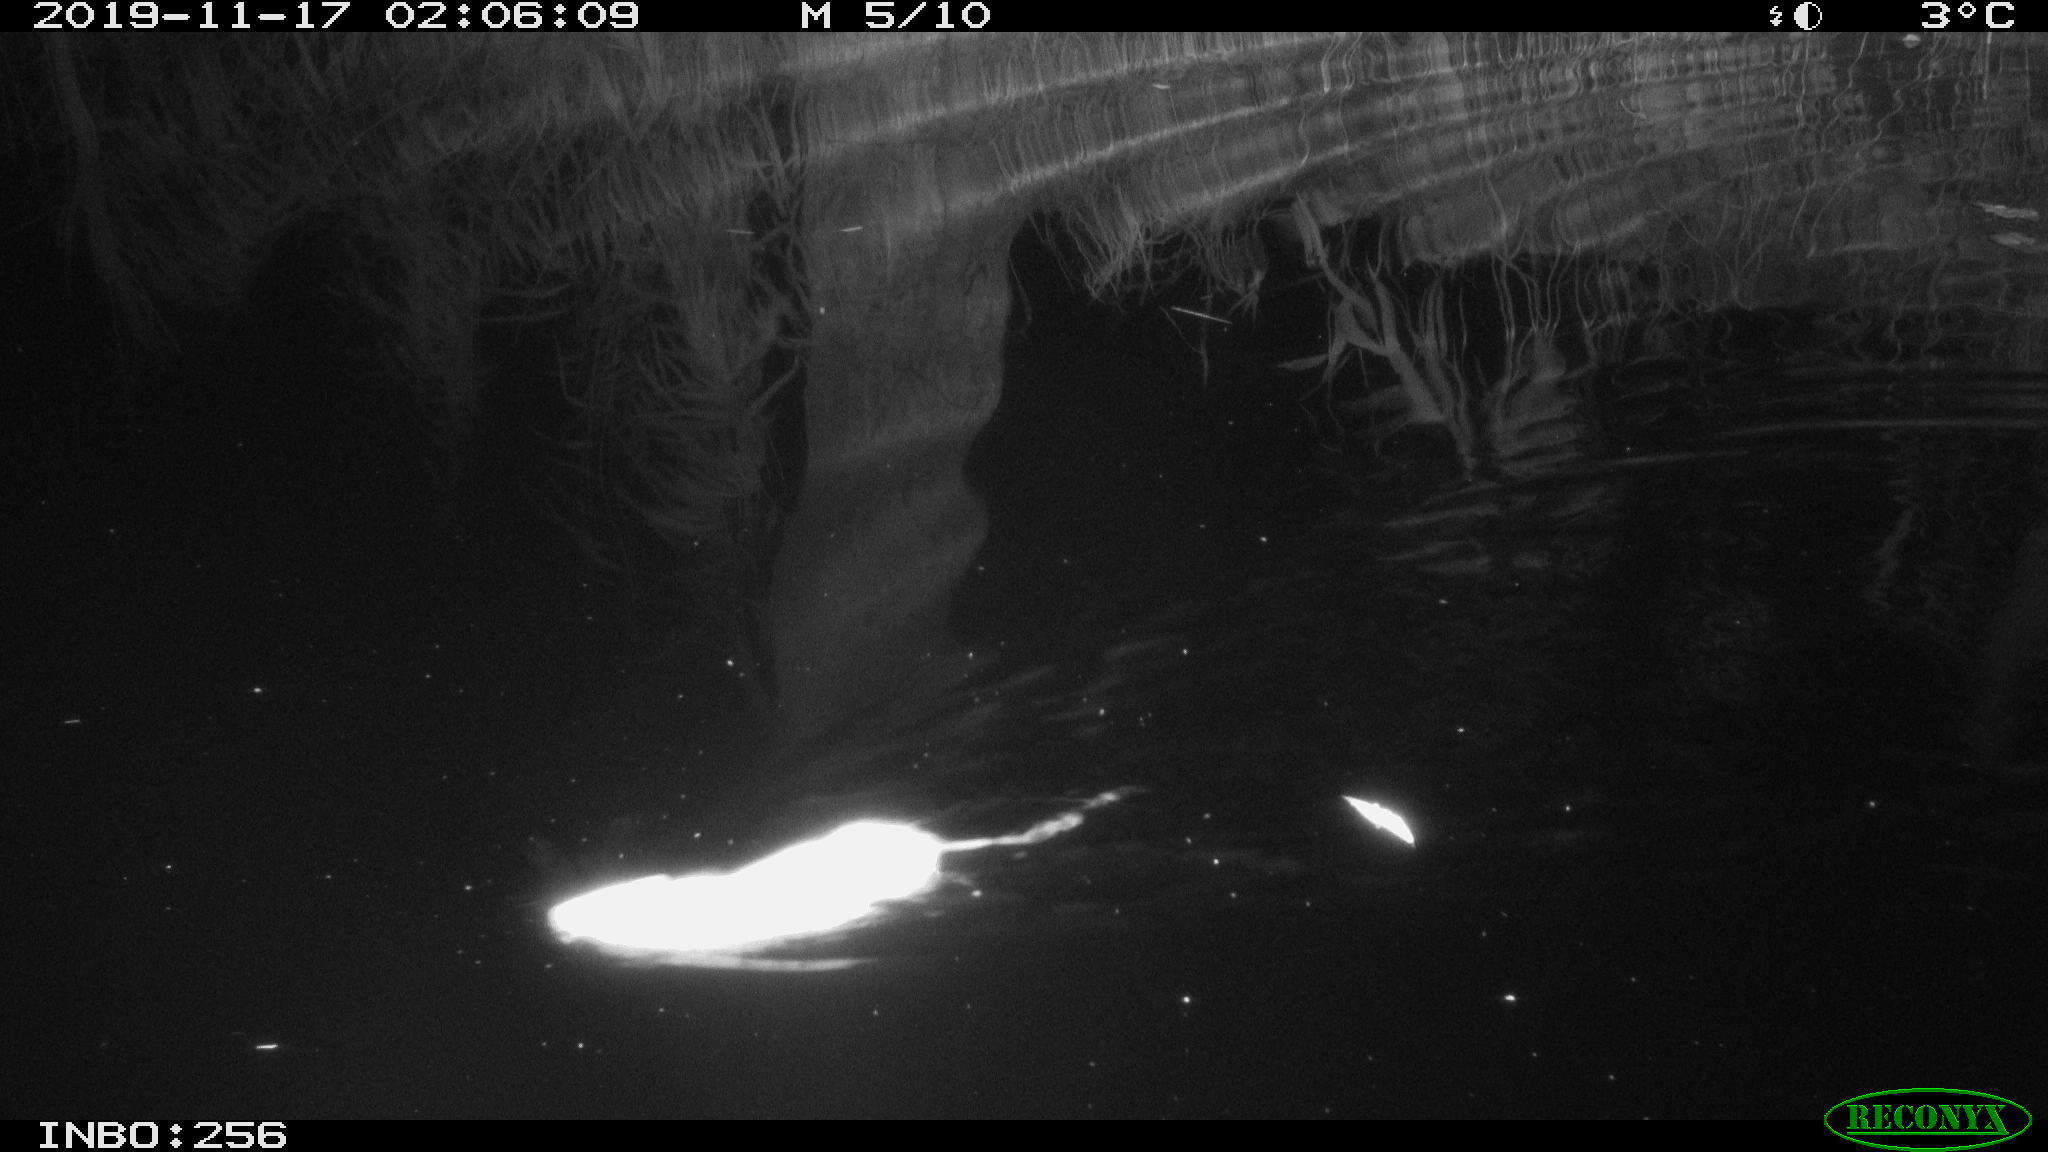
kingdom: Animalia
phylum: Chordata
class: Mammalia
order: Rodentia
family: Muridae
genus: Rattus
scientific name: Rattus norvegicus
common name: Brown rat
